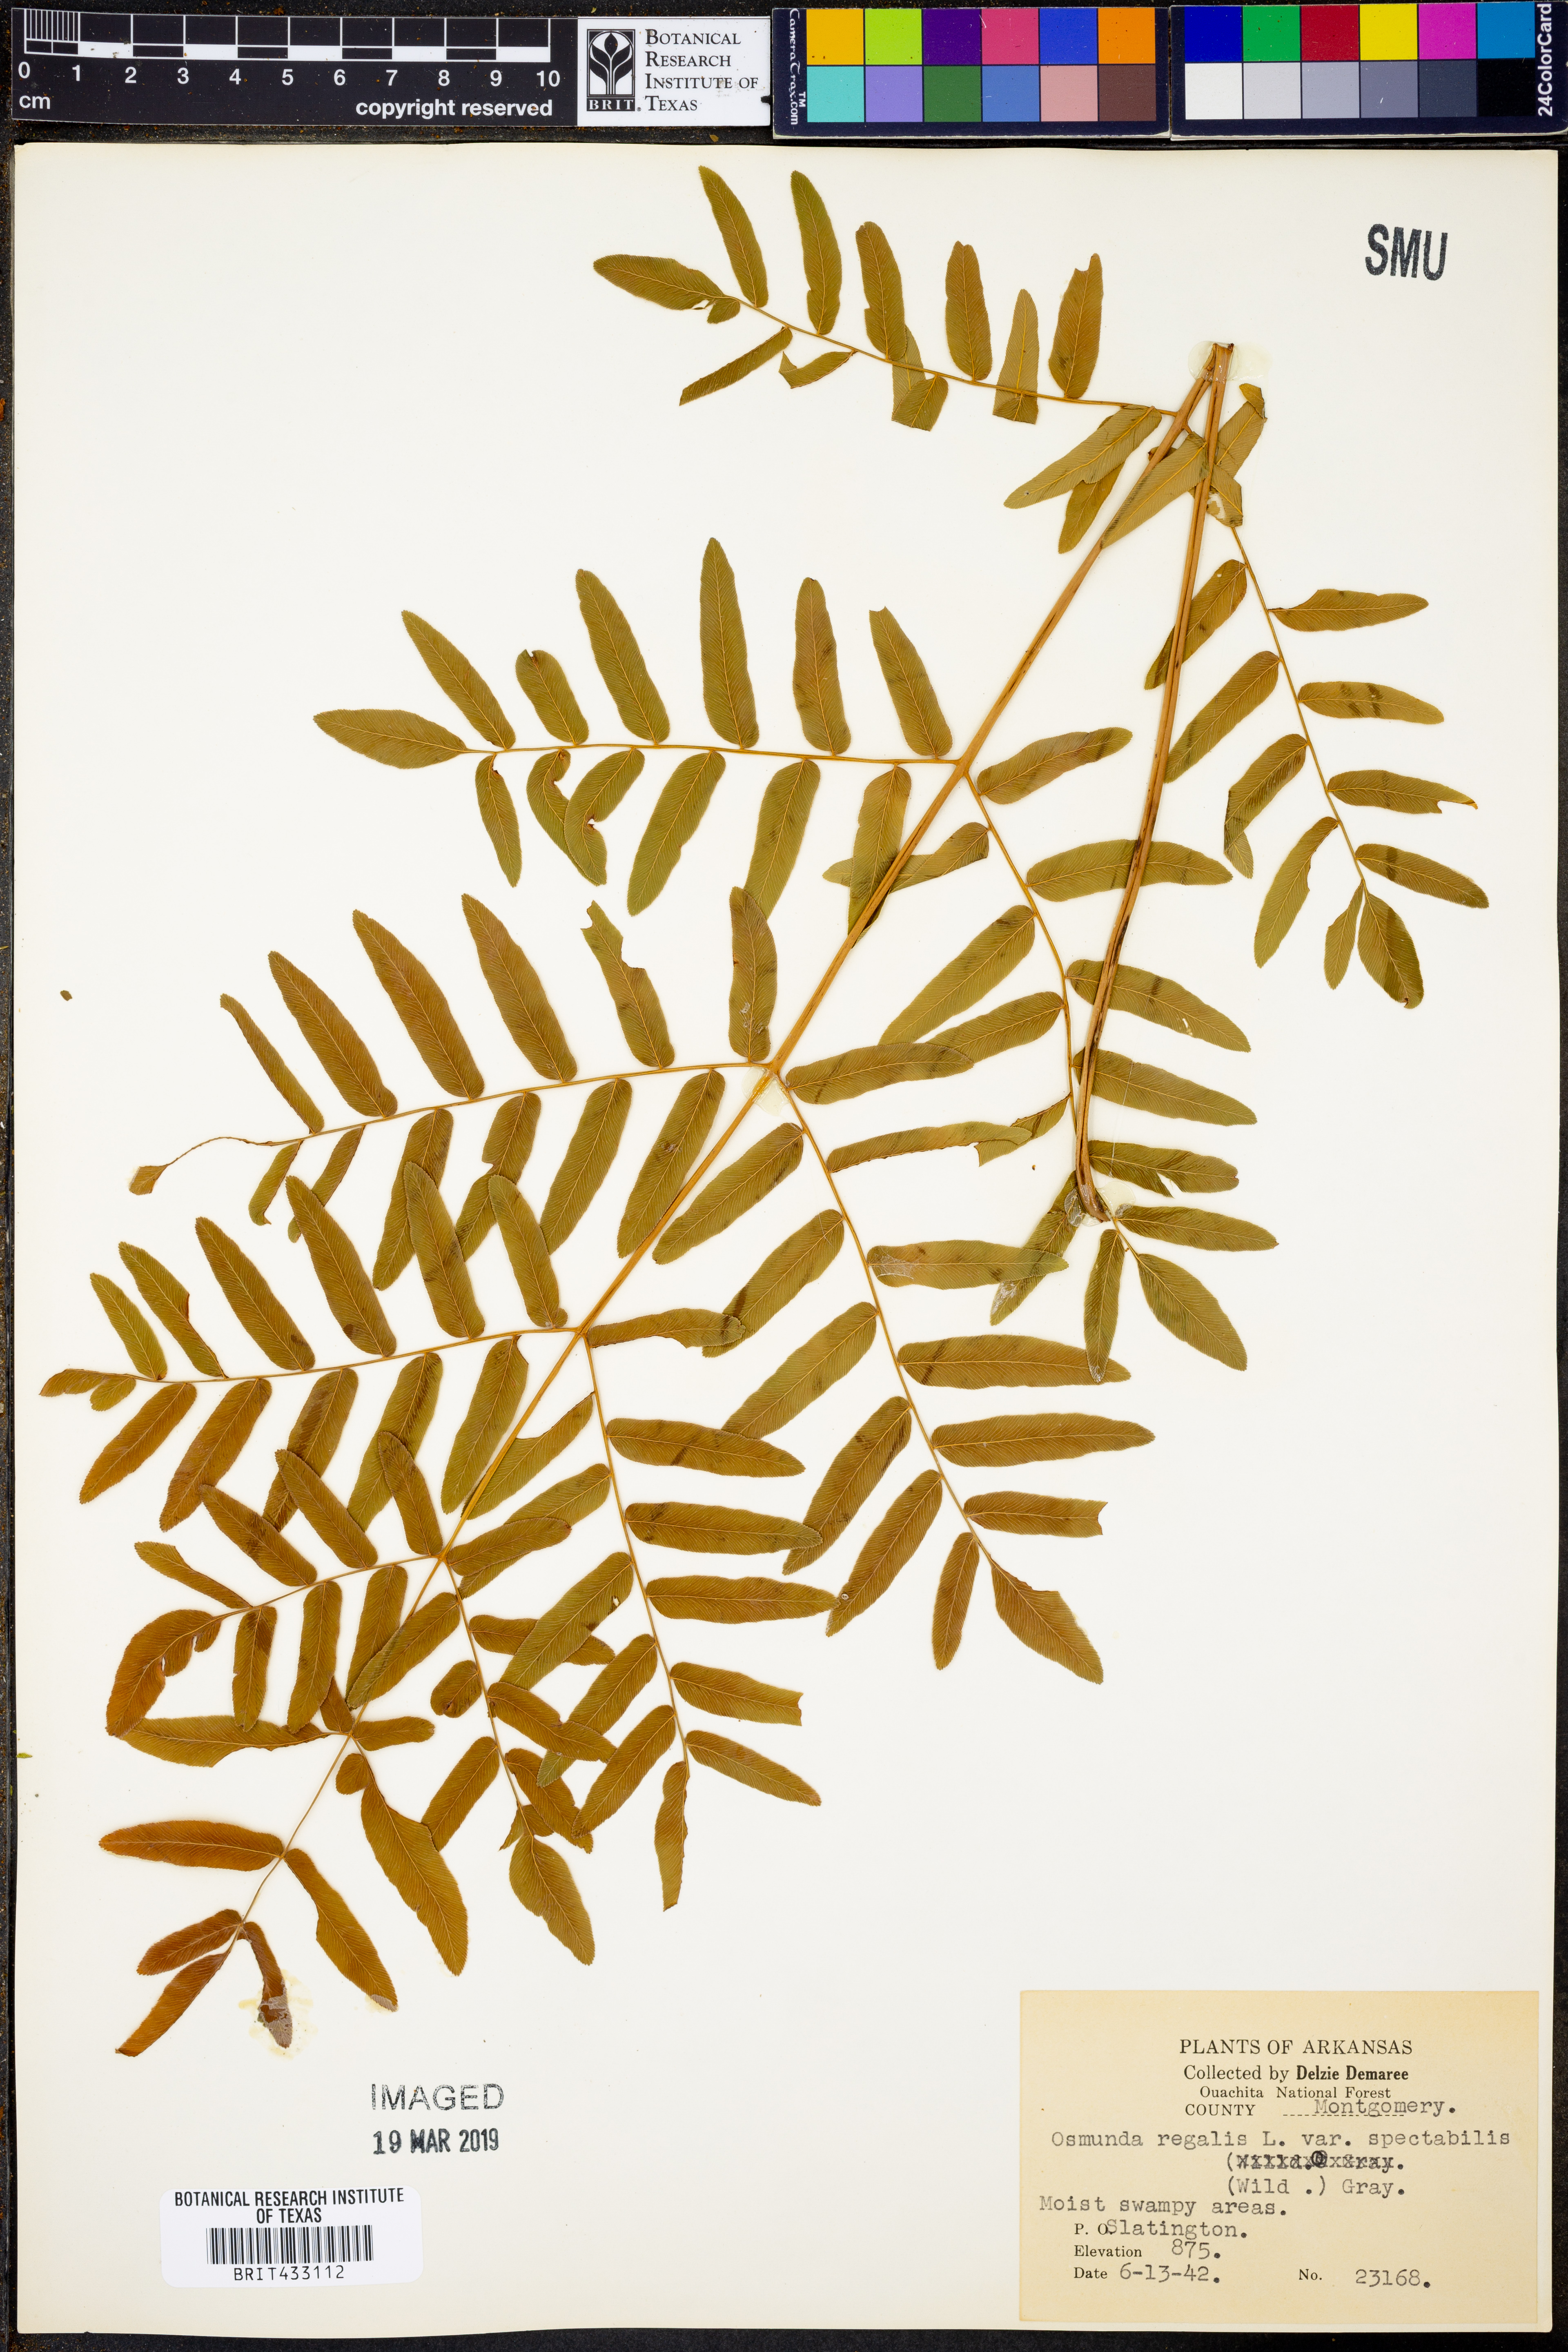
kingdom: Plantae
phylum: Tracheophyta
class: Polypodiopsida
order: Osmundales
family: Osmundaceae
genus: Osmunda
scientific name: Osmunda spectabilis
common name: American royal fern
